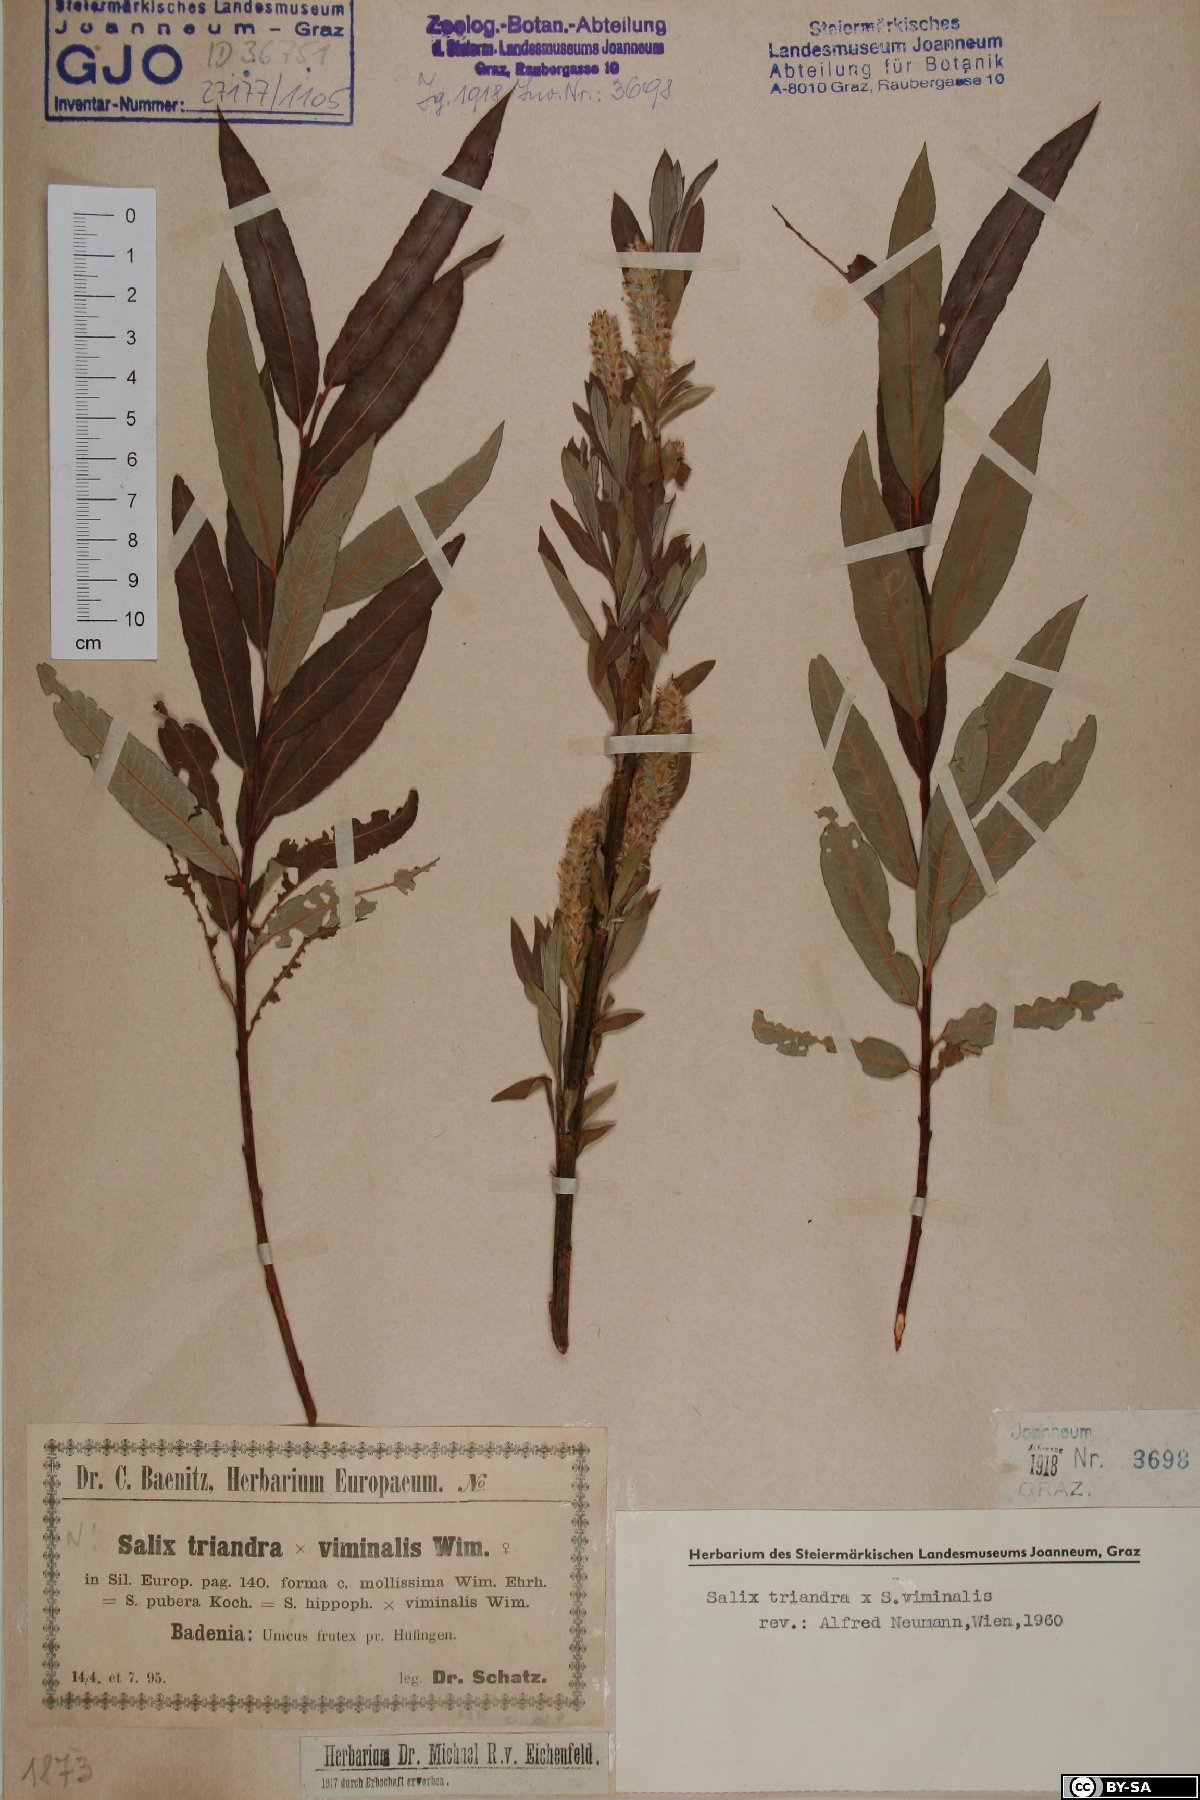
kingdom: Plantae
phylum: Tracheophyta
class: Magnoliopsida
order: Malpighiales
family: Salicaceae
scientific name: Salicaceae
